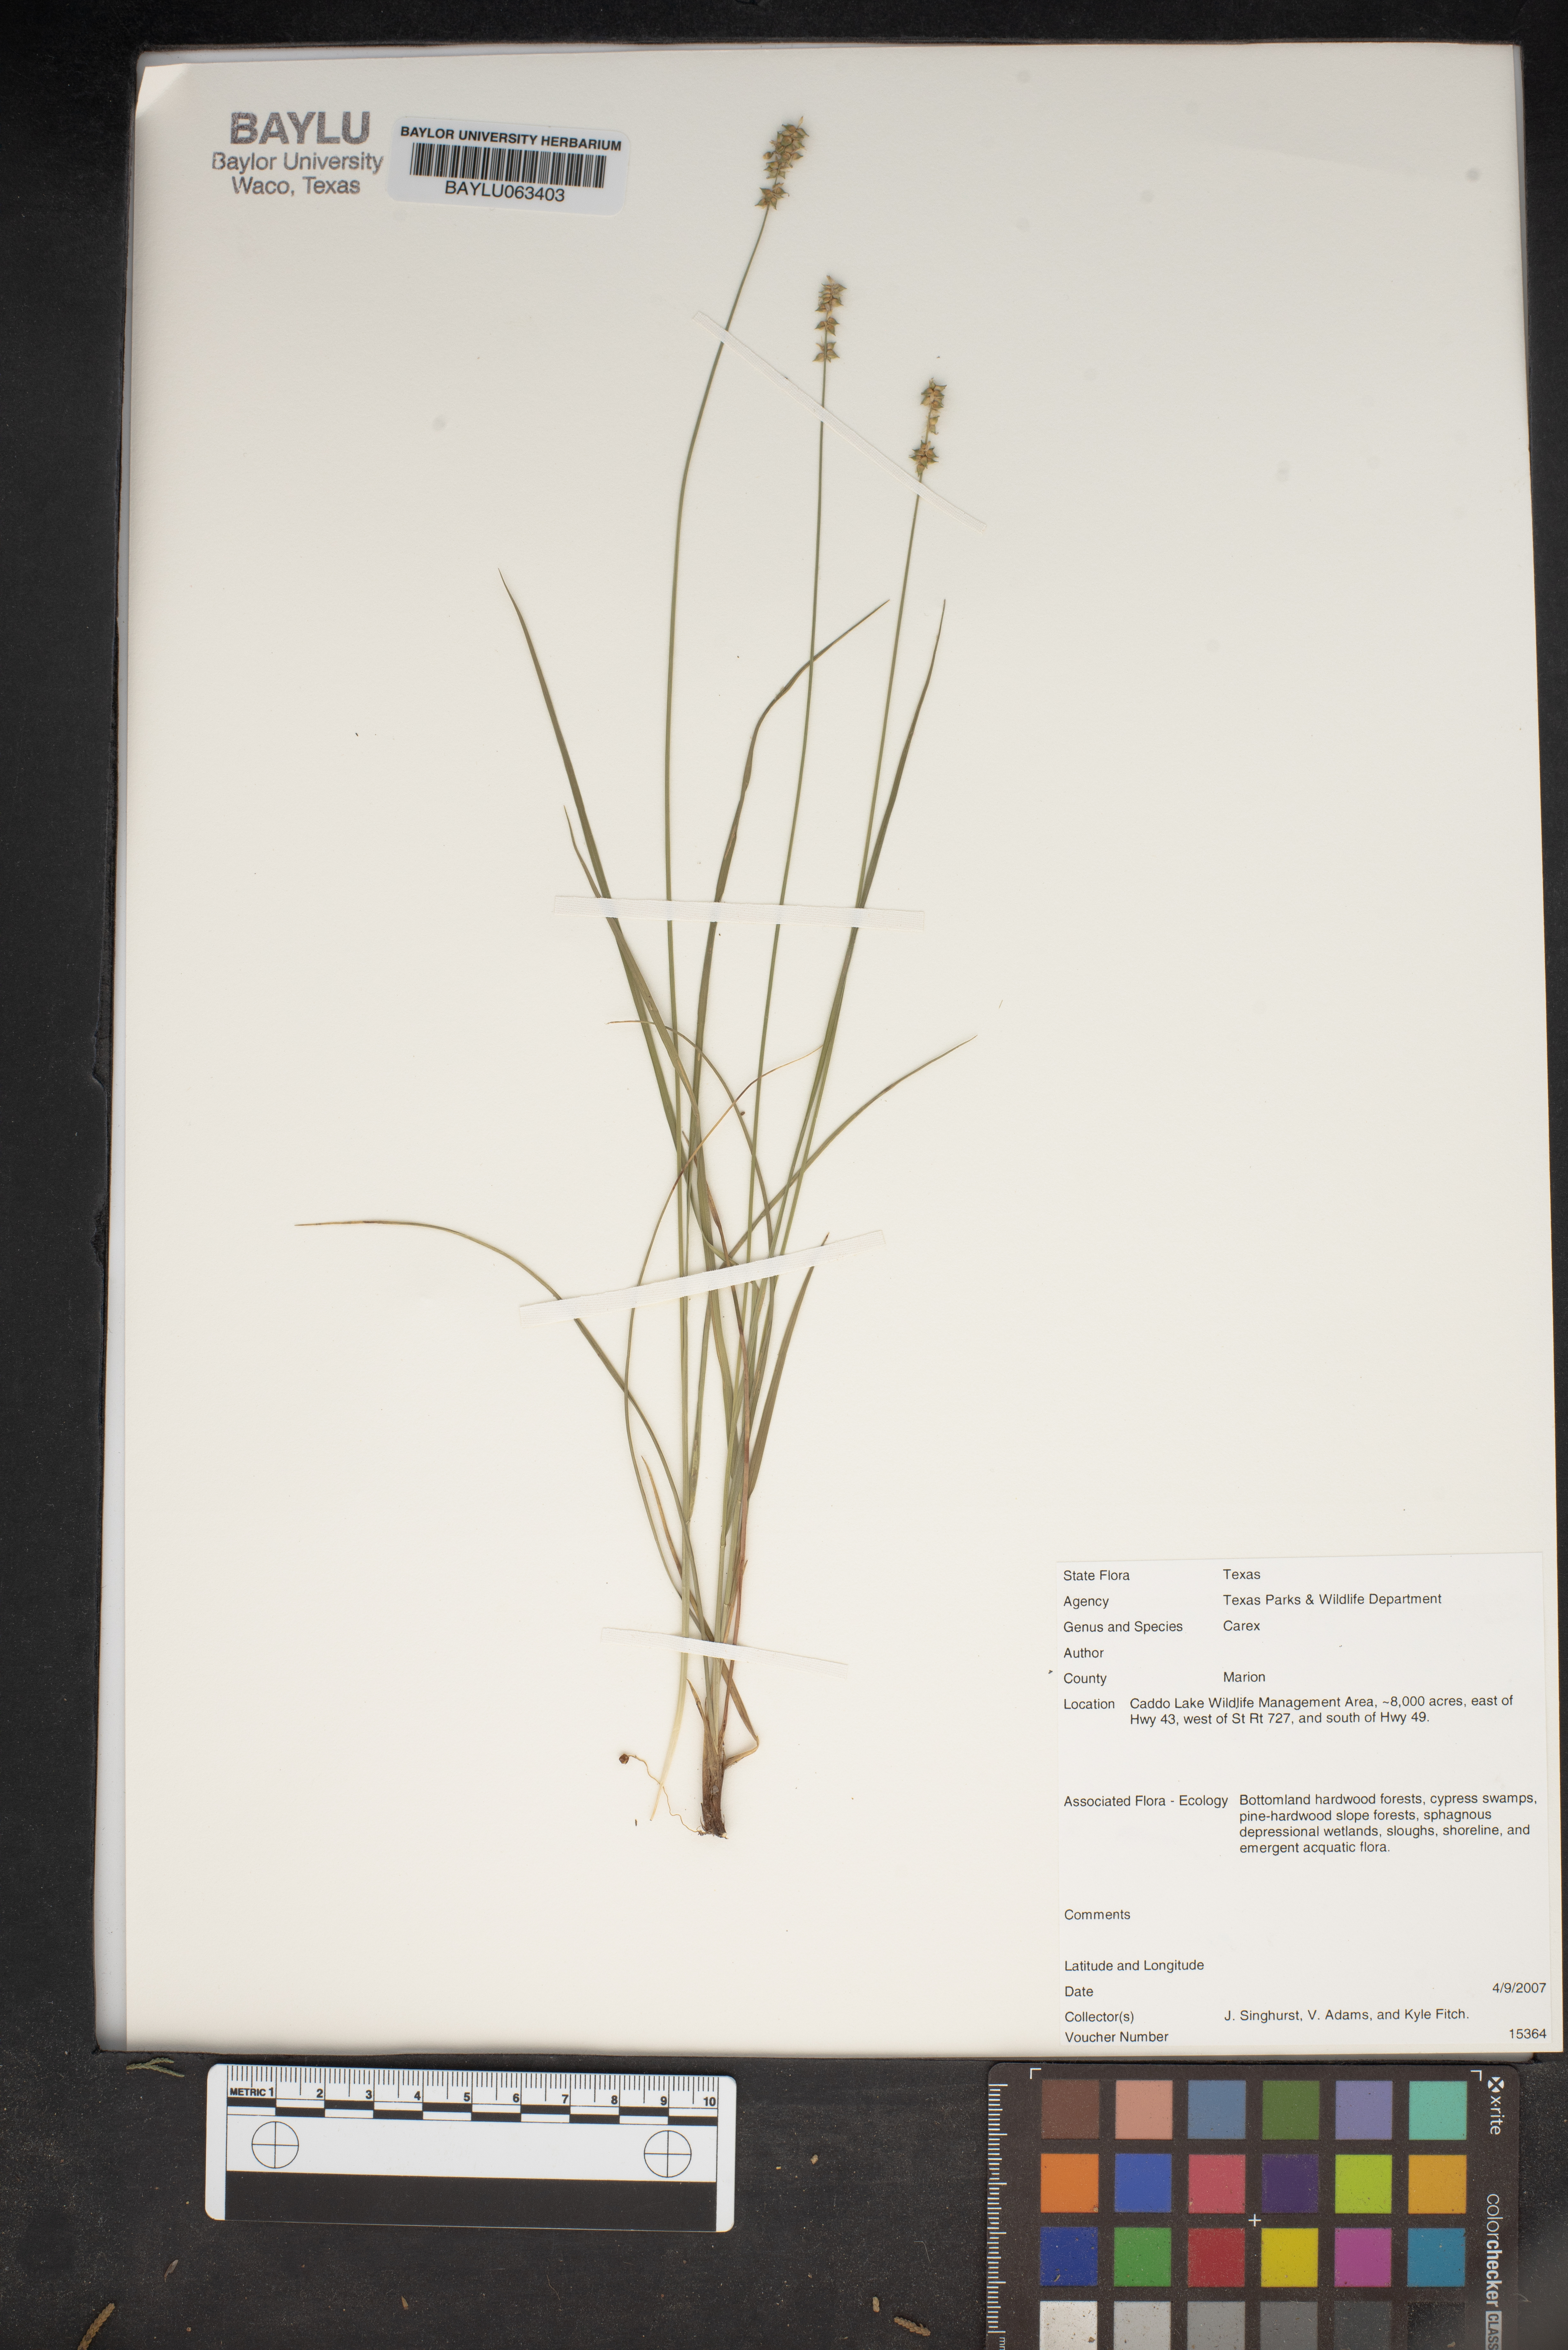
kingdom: Plantae
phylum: Tracheophyta
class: Liliopsida
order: Poales
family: Cyperaceae
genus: Carex
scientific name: Carex
